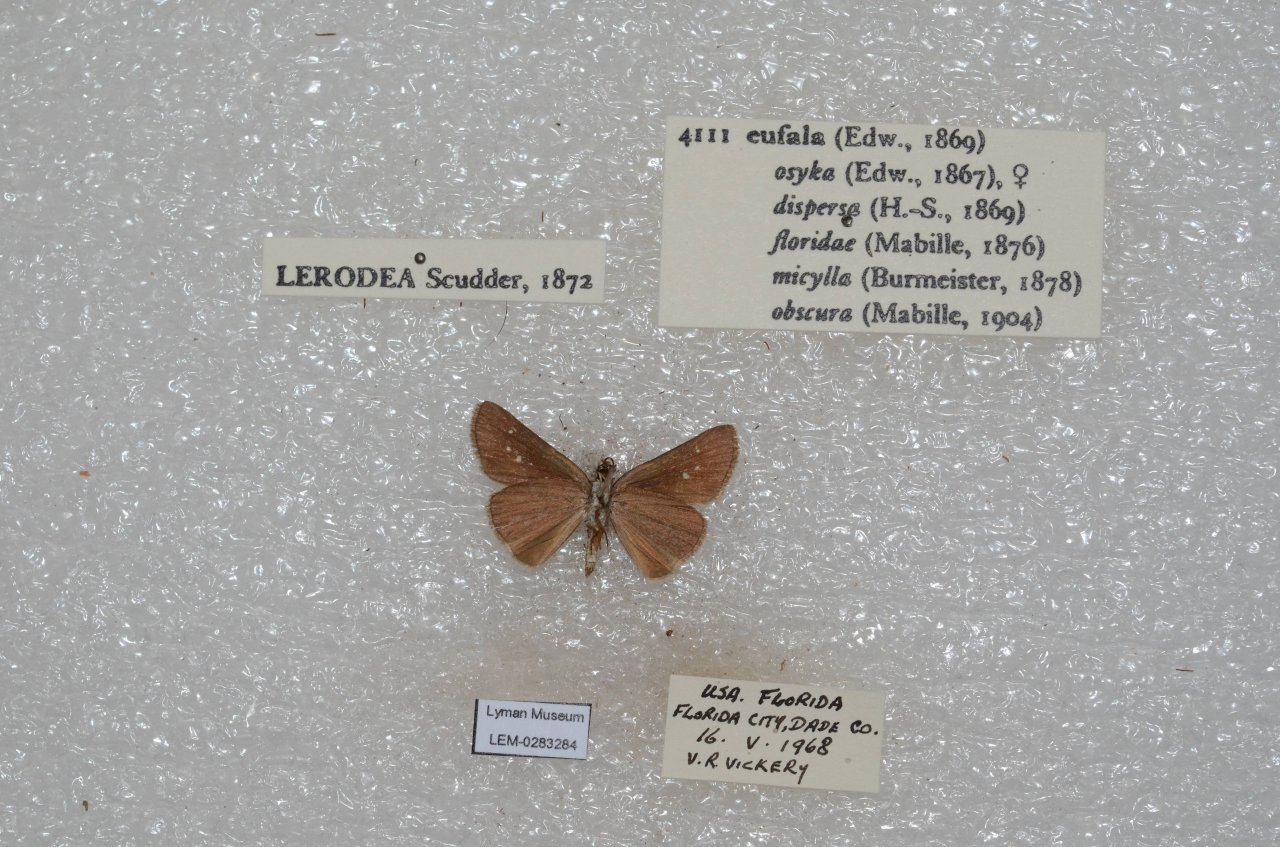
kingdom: Animalia
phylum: Arthropoda
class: Insecta
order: Lepidoptera
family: Hesperiidae
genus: Lerodea
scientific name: Lerodea eufala
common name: Eufala Skipper
